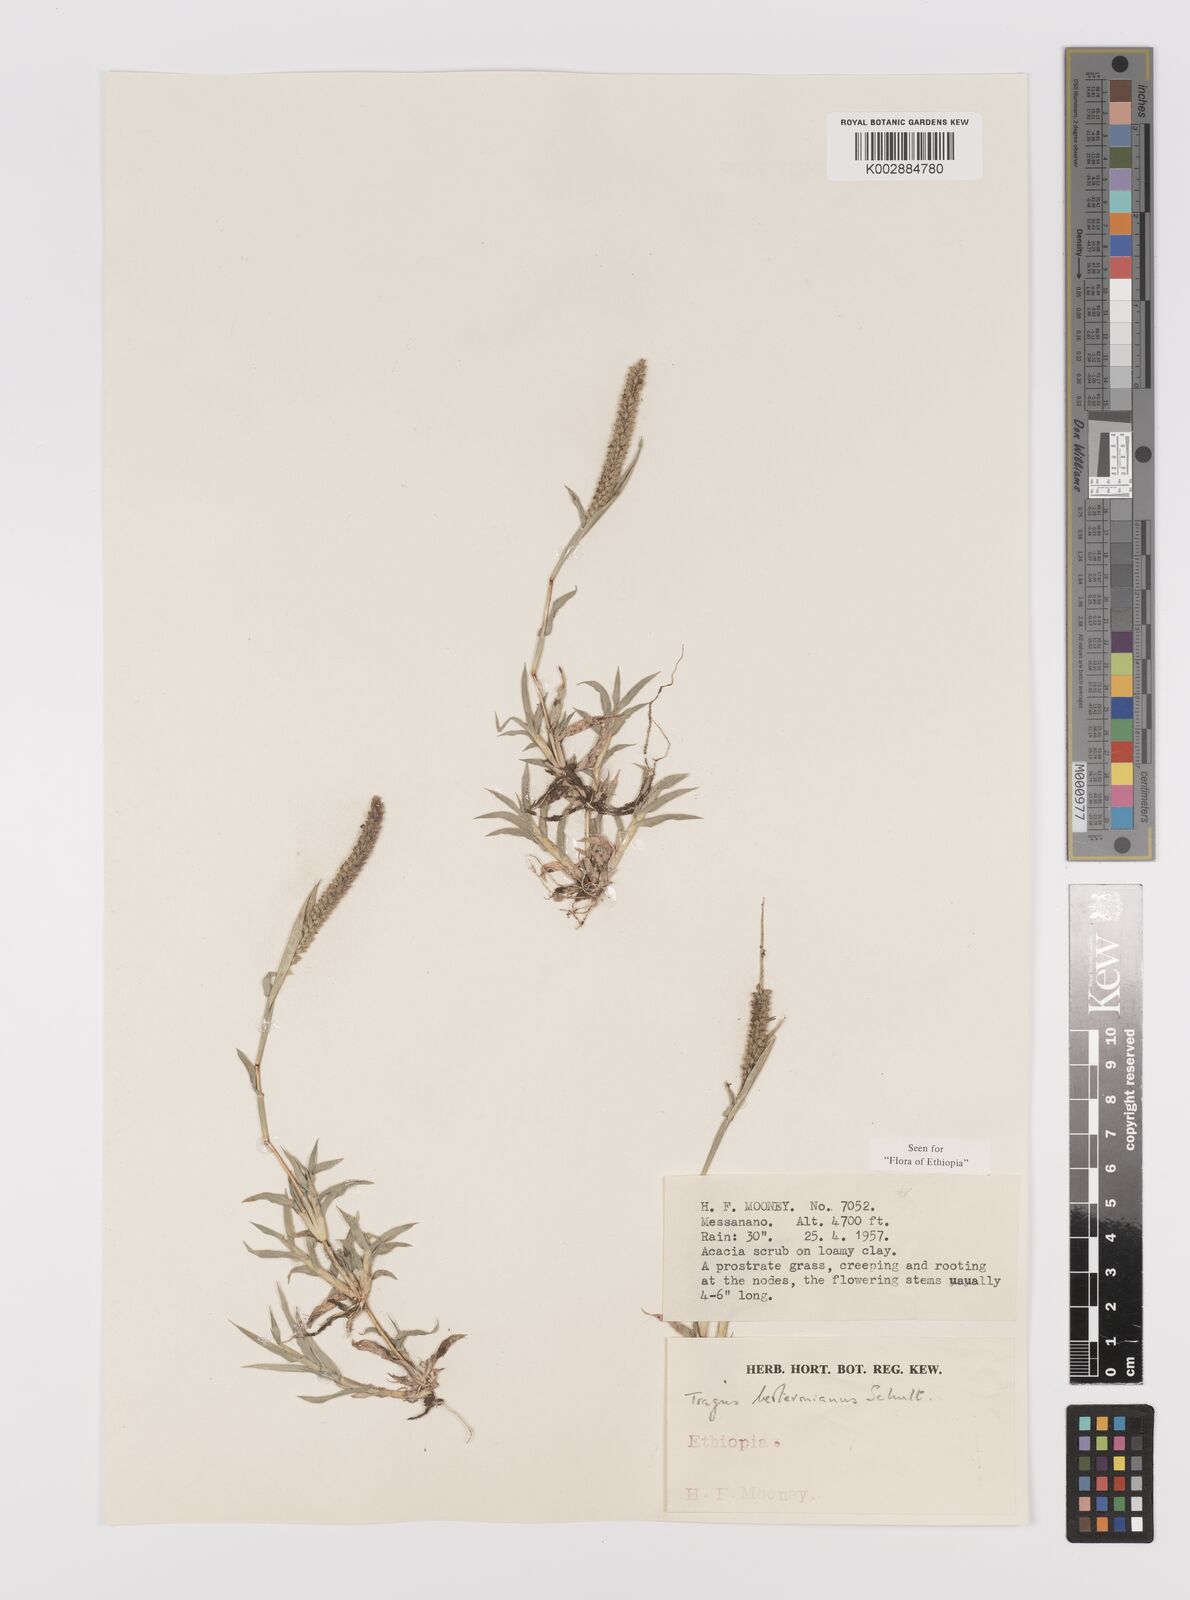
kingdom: Plantae
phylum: Tracheophyta
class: Liliopsida
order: Poales
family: Poaceae
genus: Tragus
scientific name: Tragus berteronianus
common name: African bur-grass
